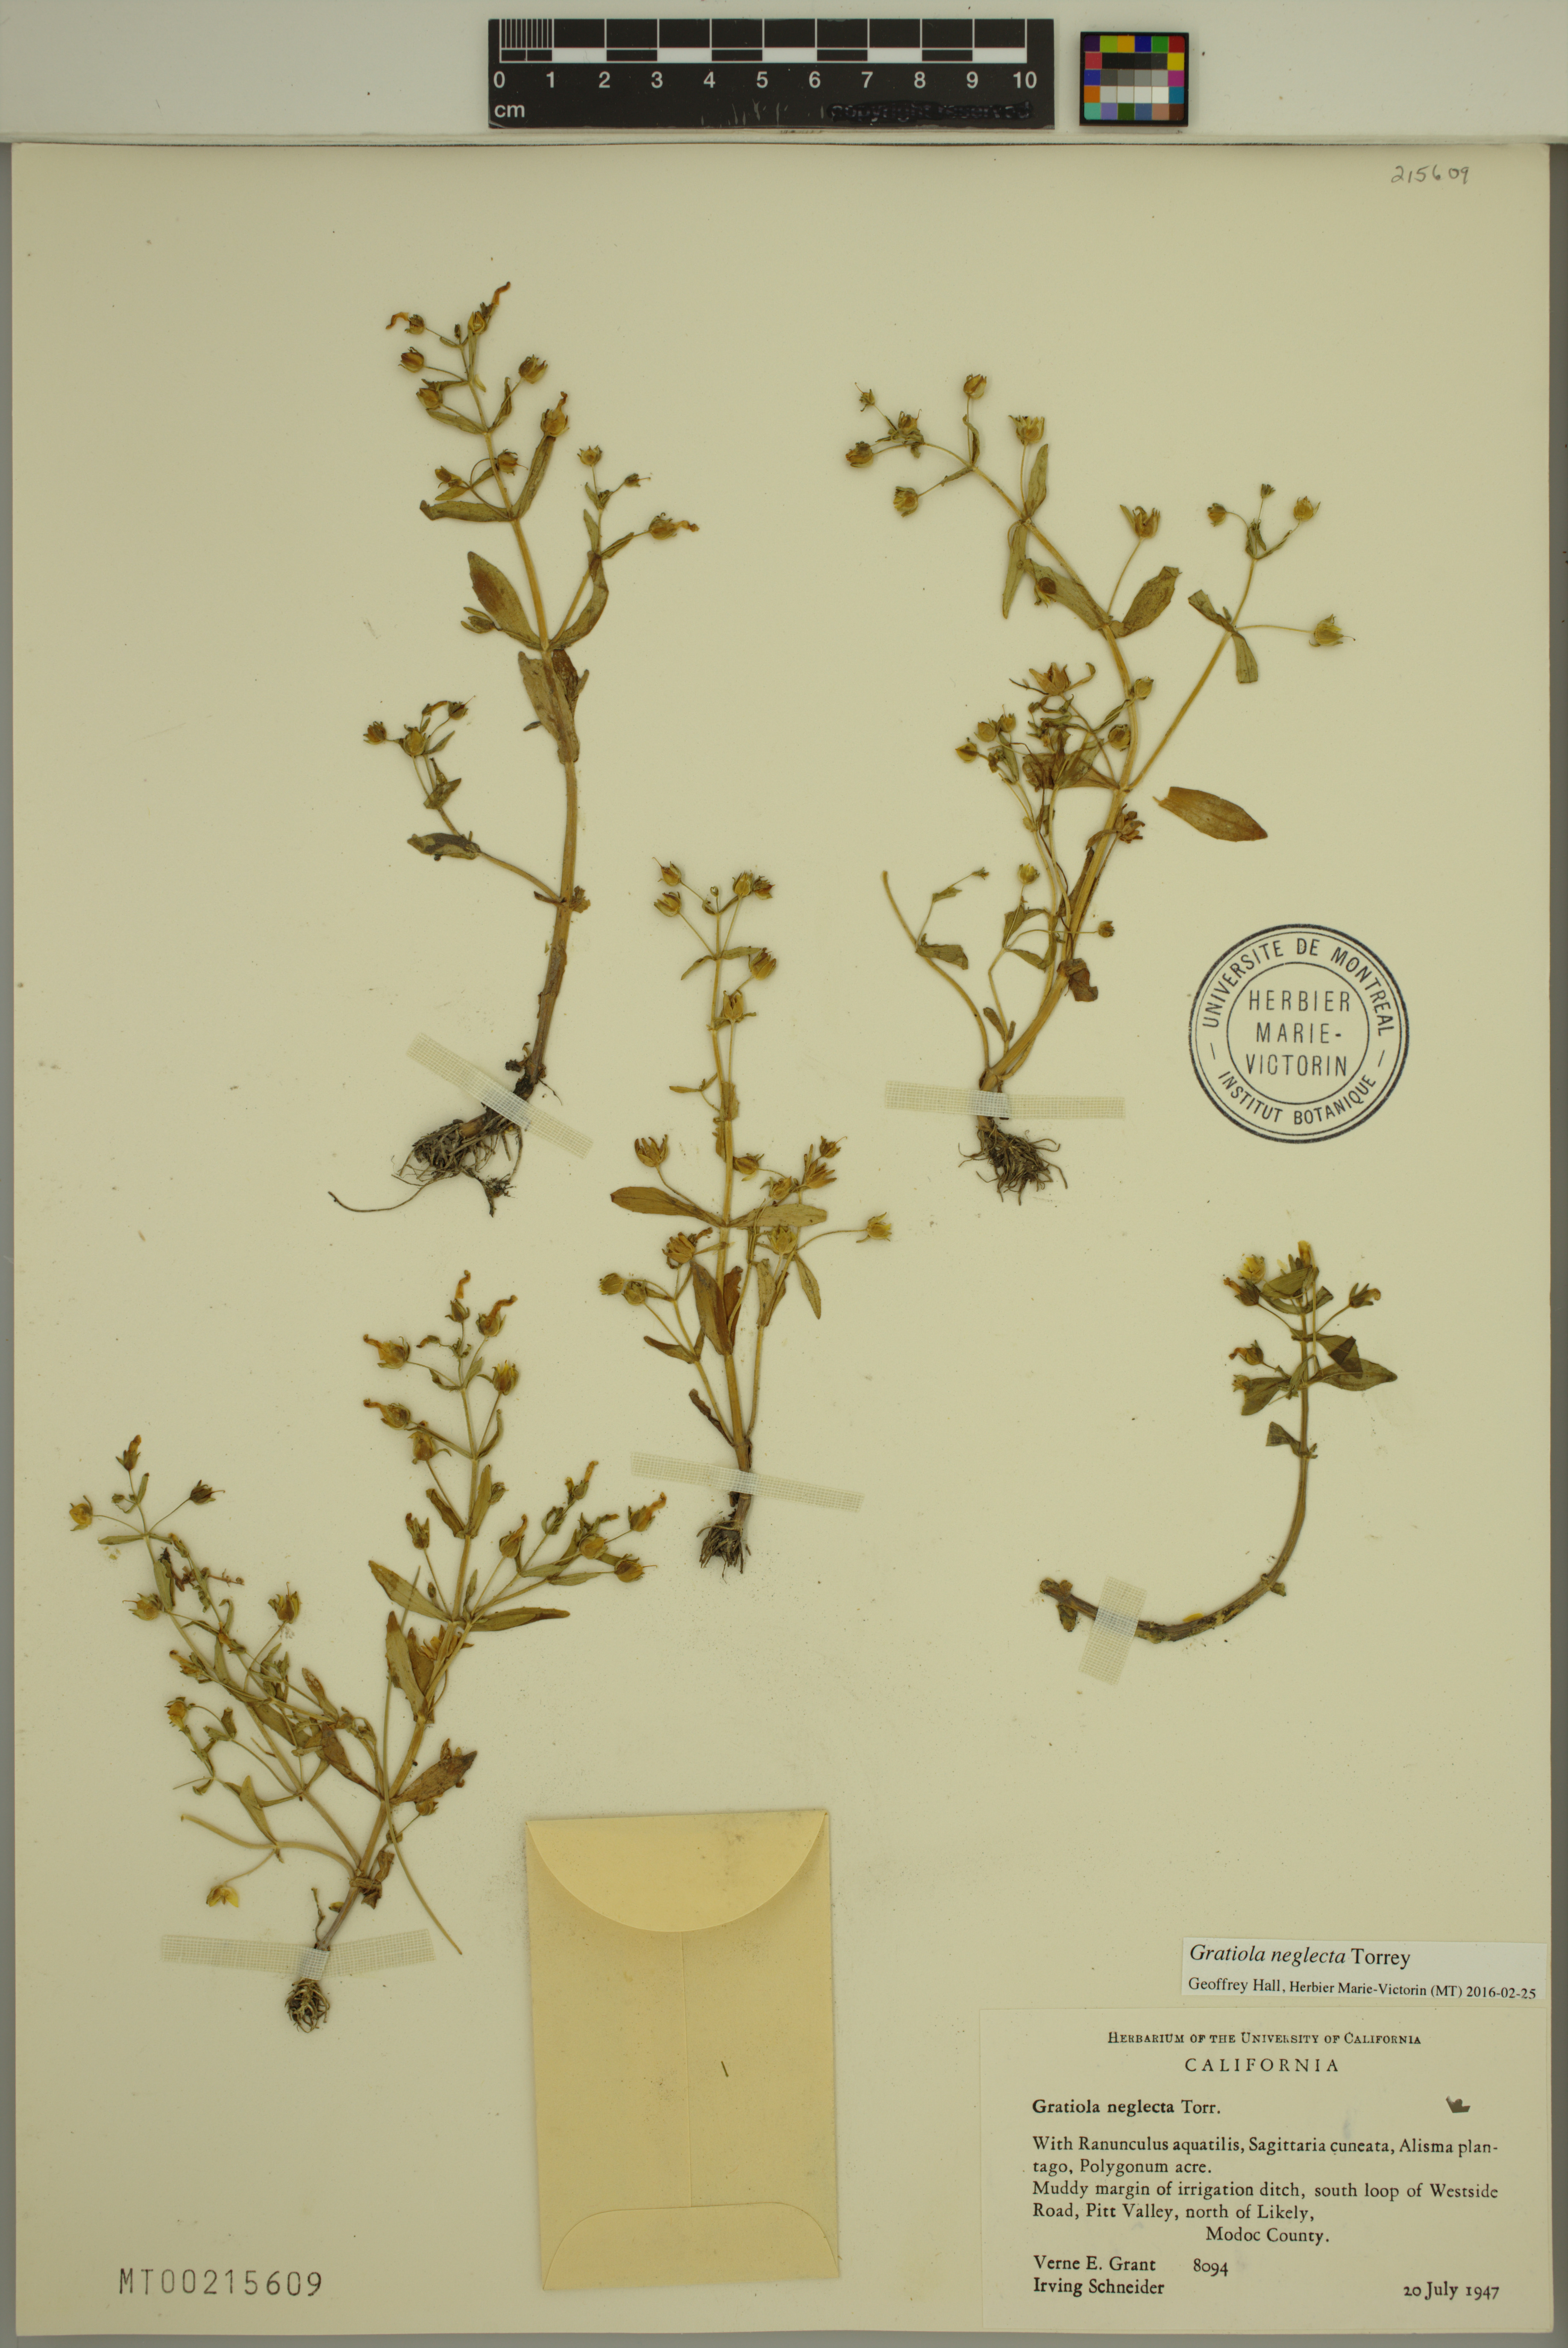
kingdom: Plantae
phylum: Tracheophyta
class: Magnoliopsida
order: Lamiales
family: Plantaginaceae
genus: Gratiola
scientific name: Gratiola neglecta
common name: American hedge-hyssop
